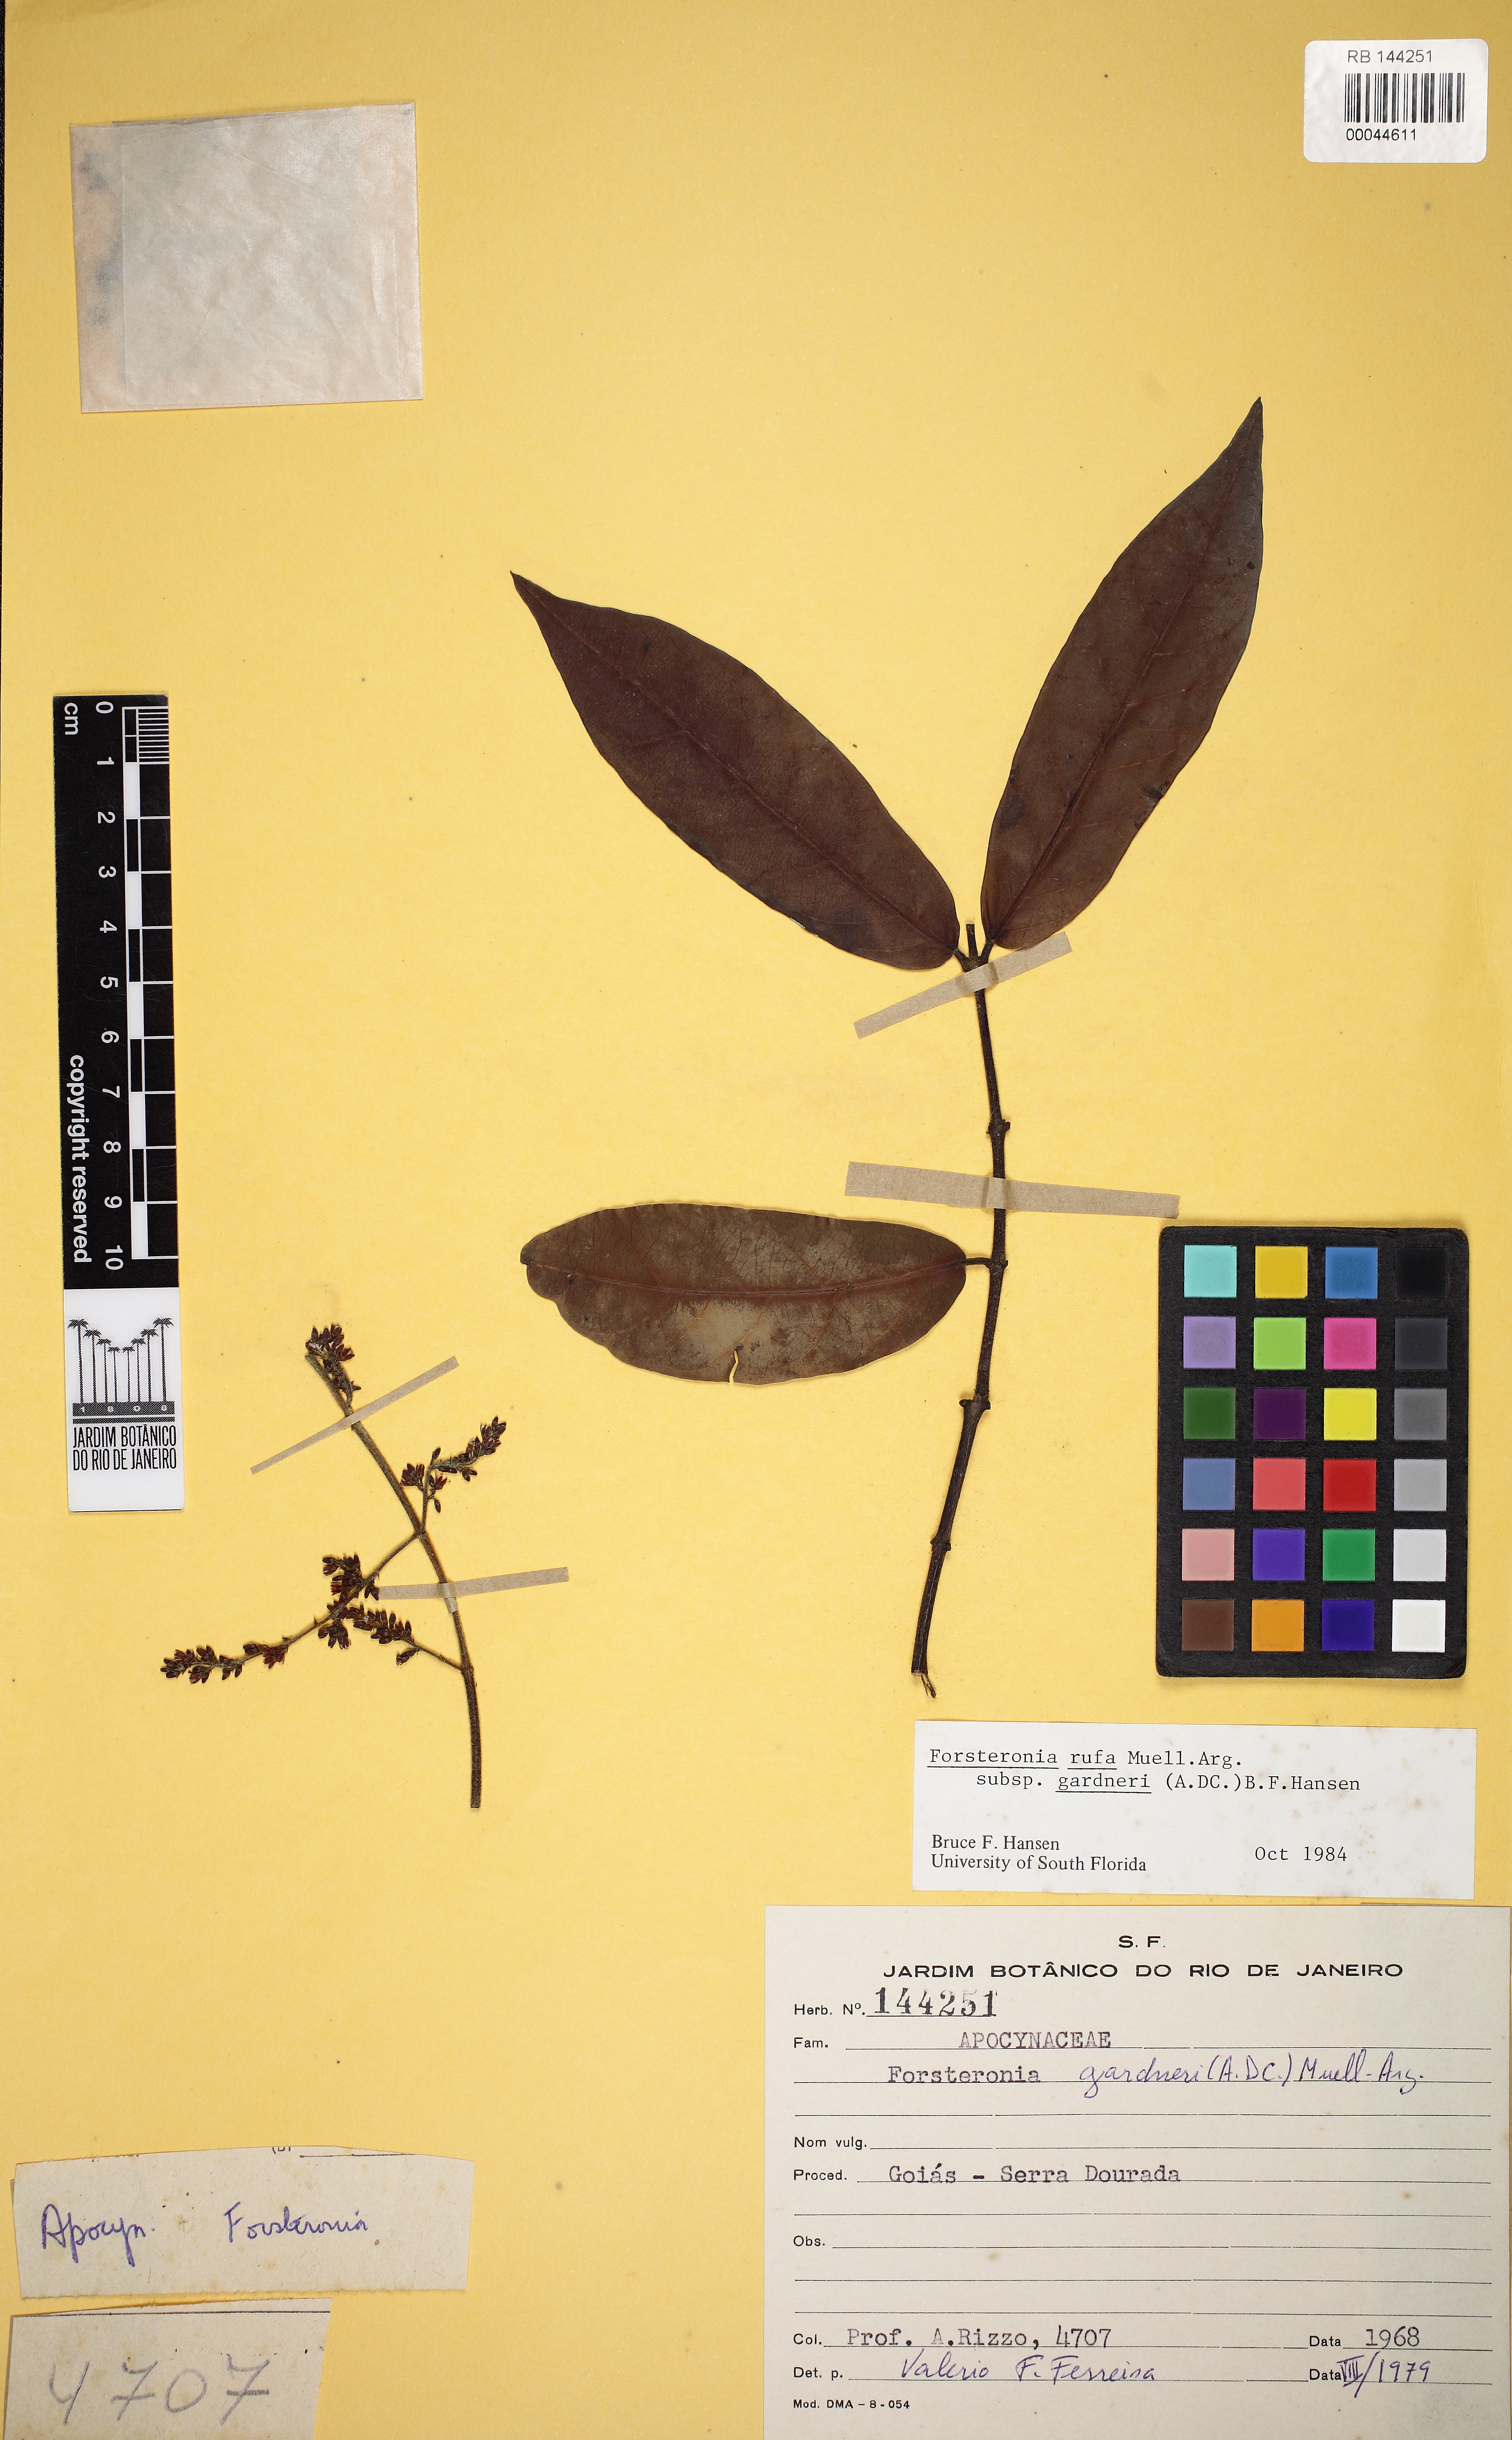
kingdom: Plantae
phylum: Tracheophyta
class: Magnoliopsida
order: Gentianales
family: Apocynaceae
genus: Forsteronia
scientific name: Forsteronia rufa
